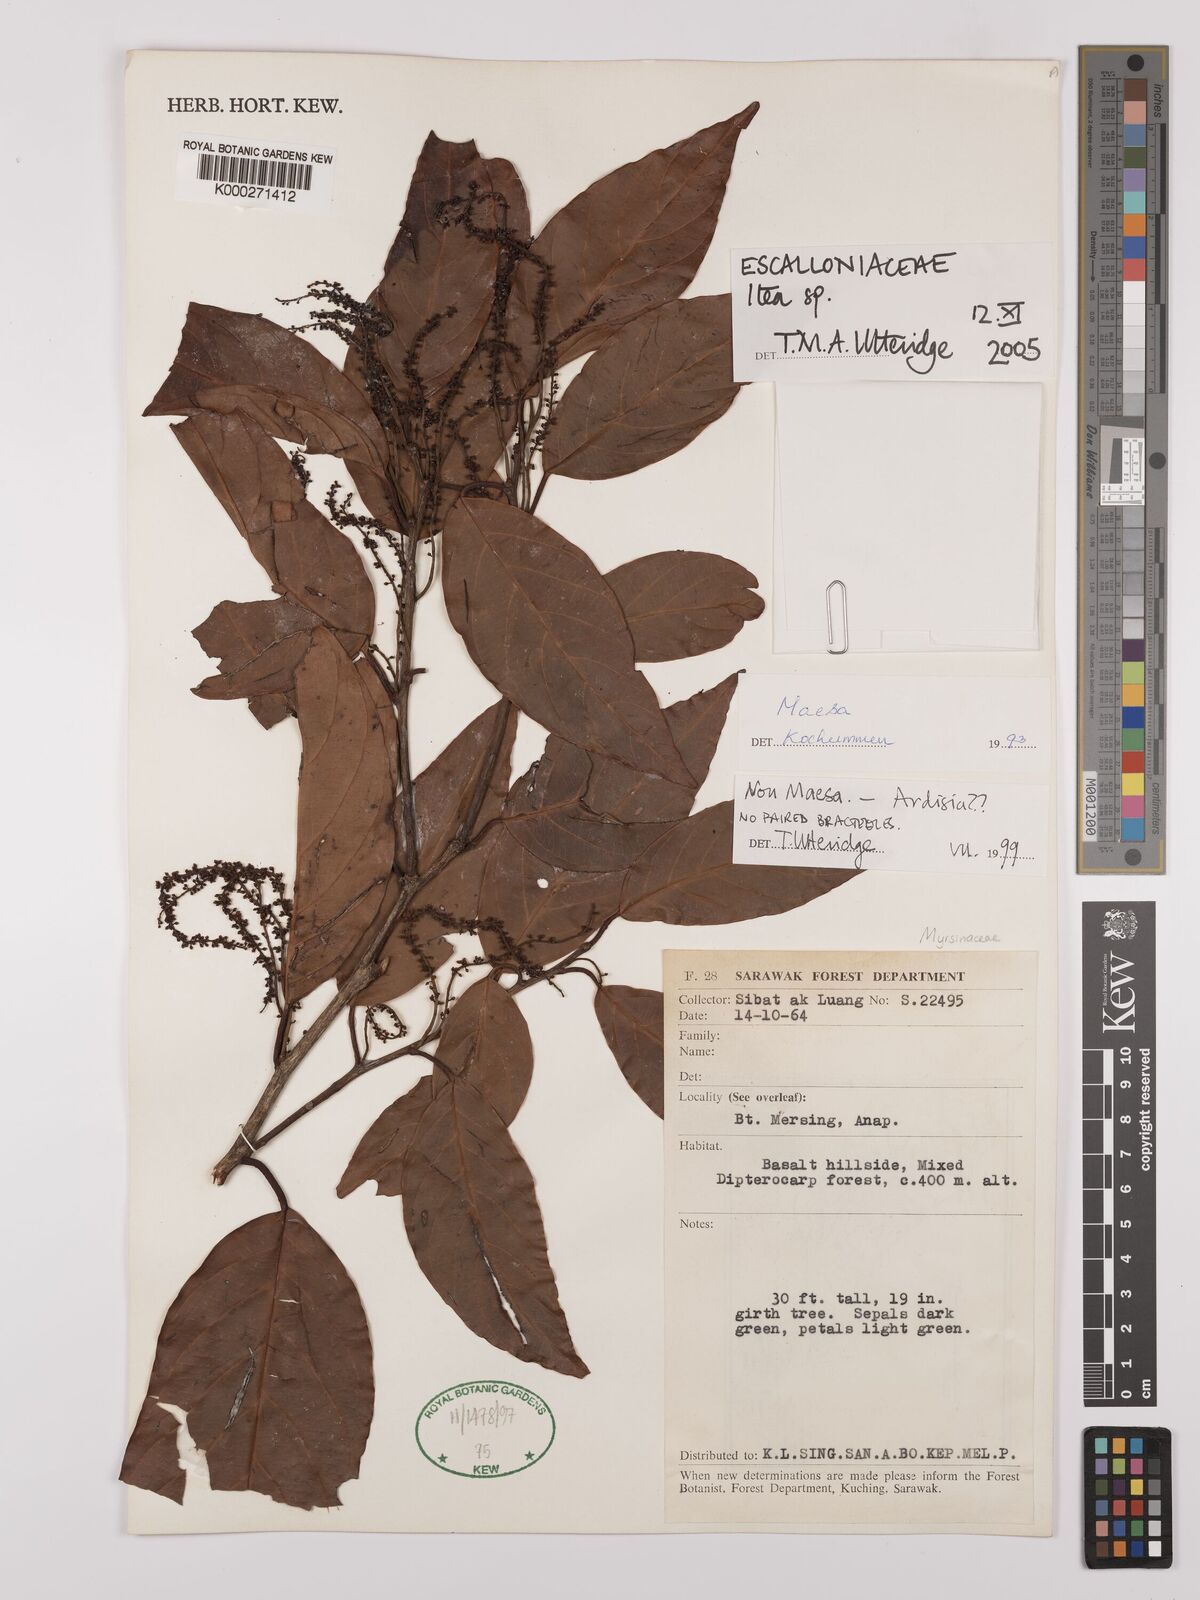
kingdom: Plantae
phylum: Tracheophyta
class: Magnoliopsida
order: Saxifragales
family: Iteaceae
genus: Itea
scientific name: Itea
